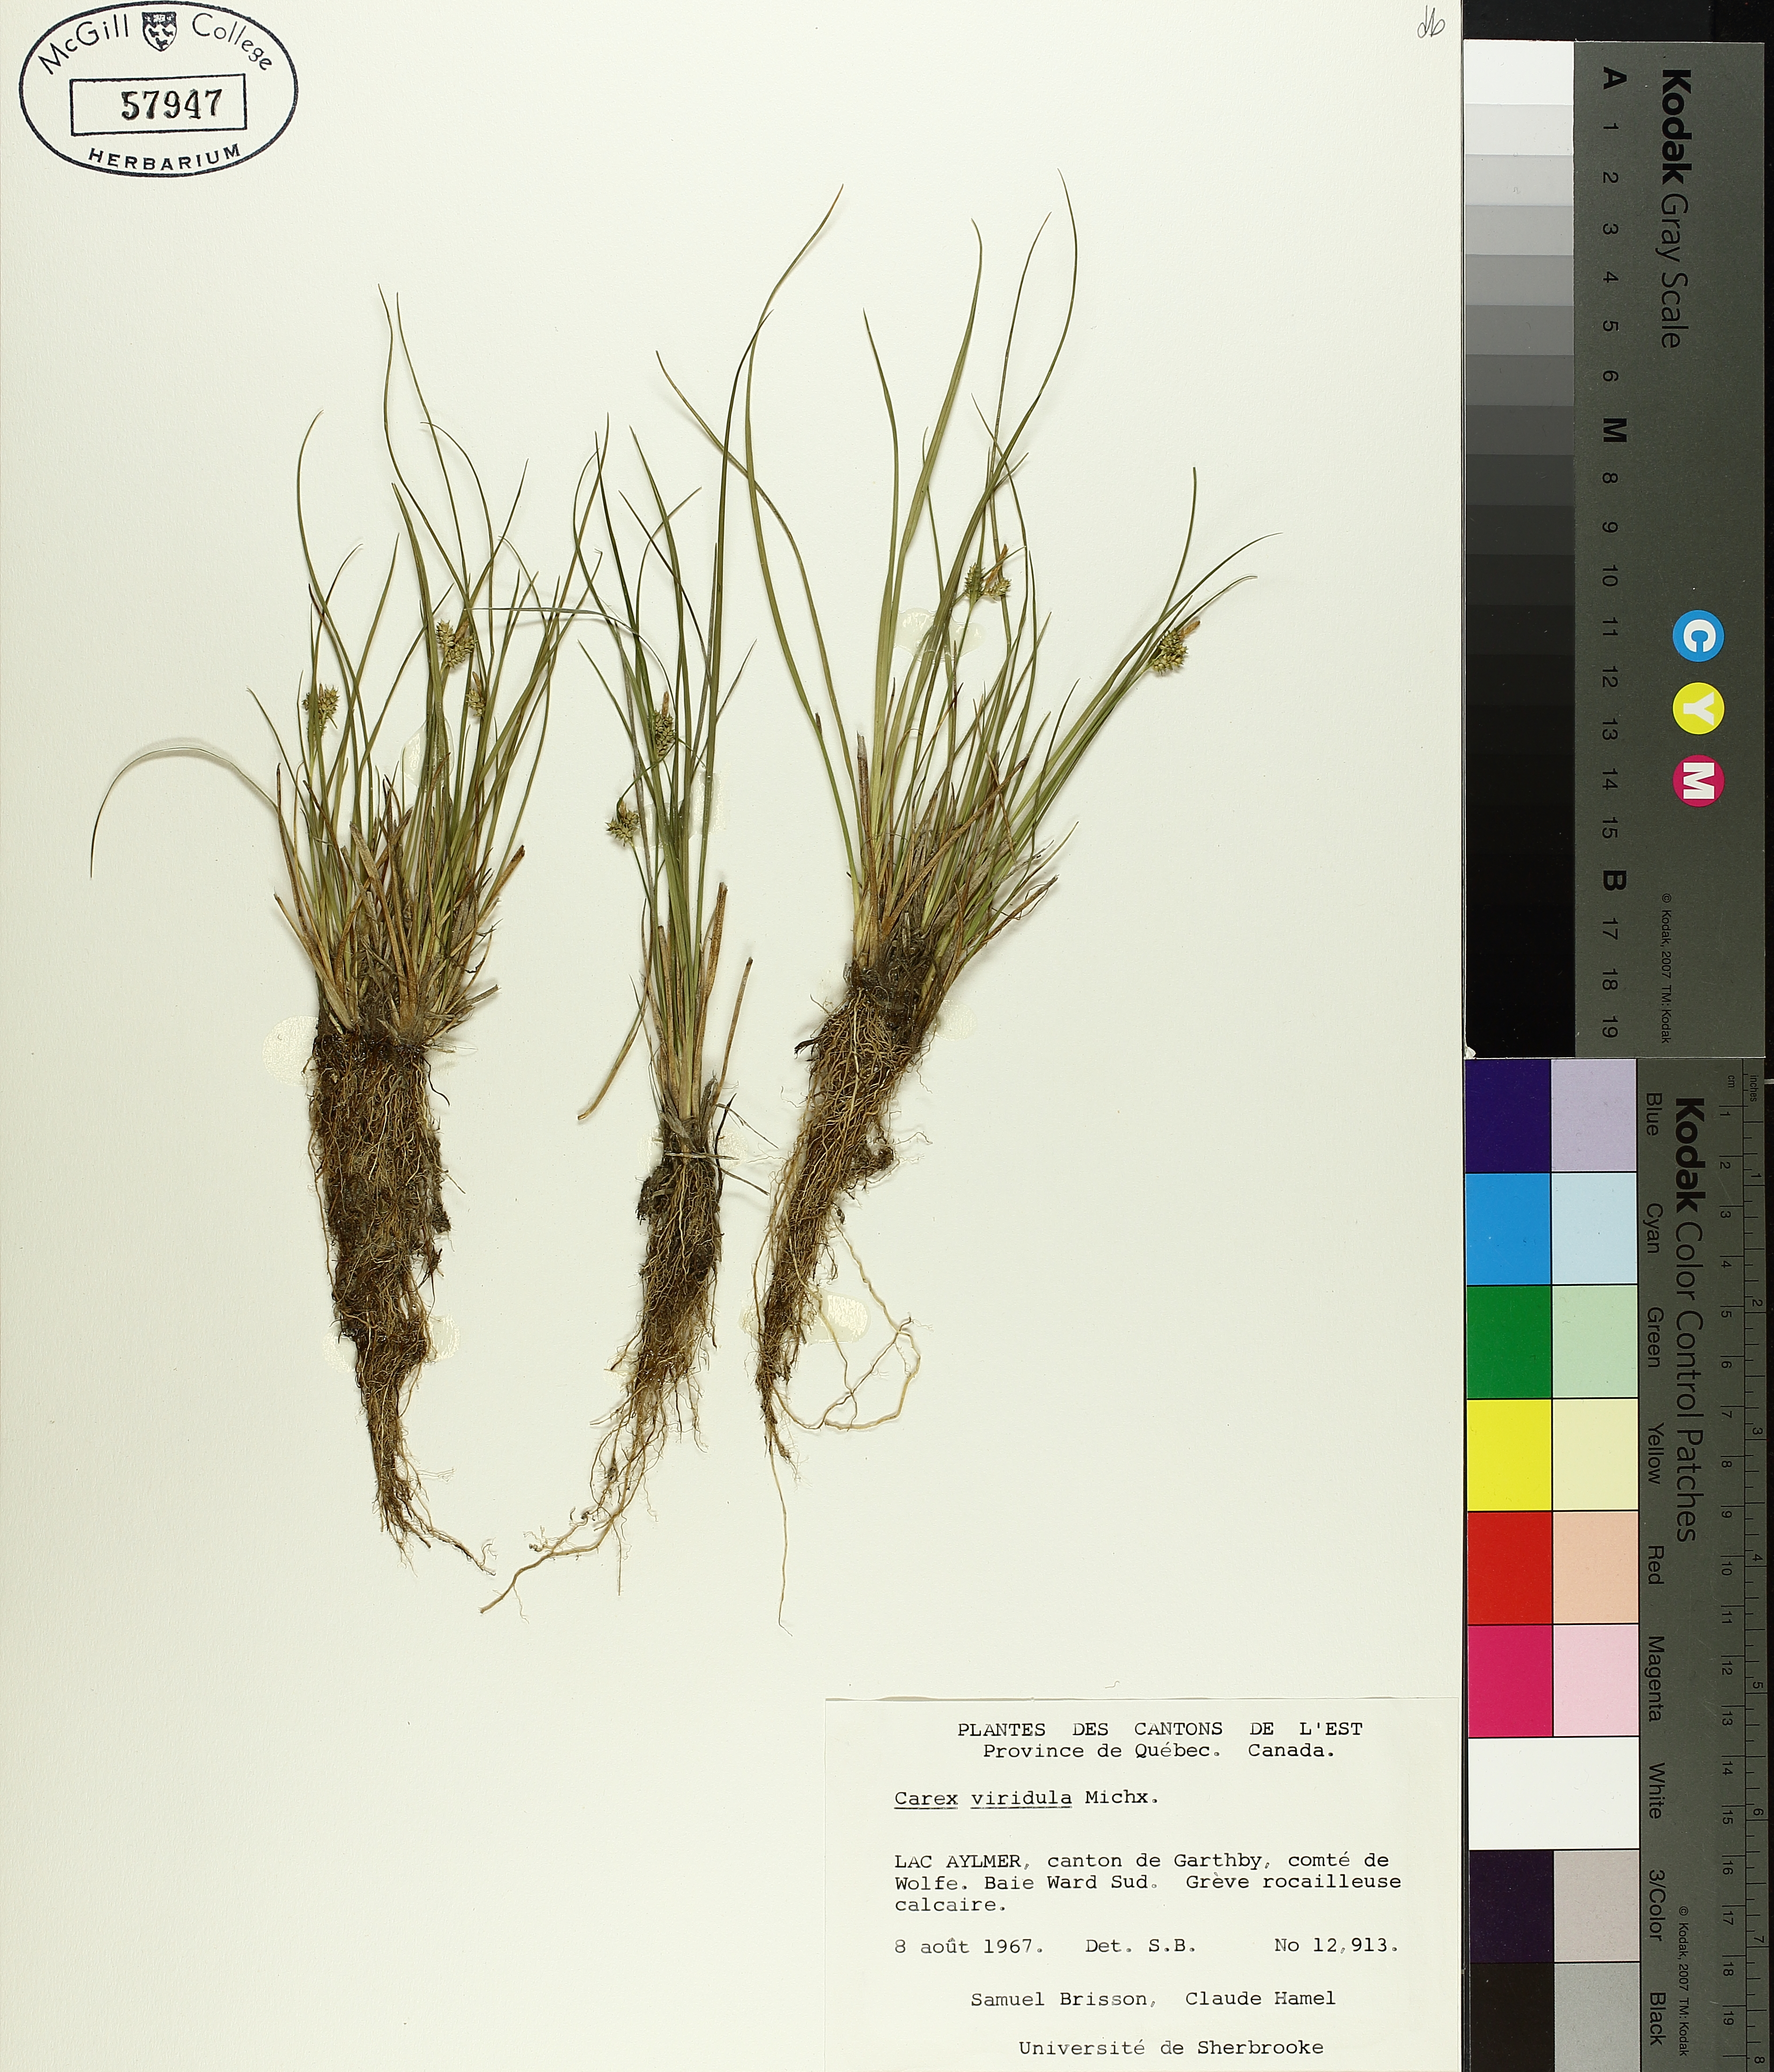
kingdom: Plantae
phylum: Tracheophyta
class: Liliopsida
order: Poales
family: Cyperaceae
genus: Carex
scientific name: Carex oederi
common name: Common & small-fruited yellow-sedge
